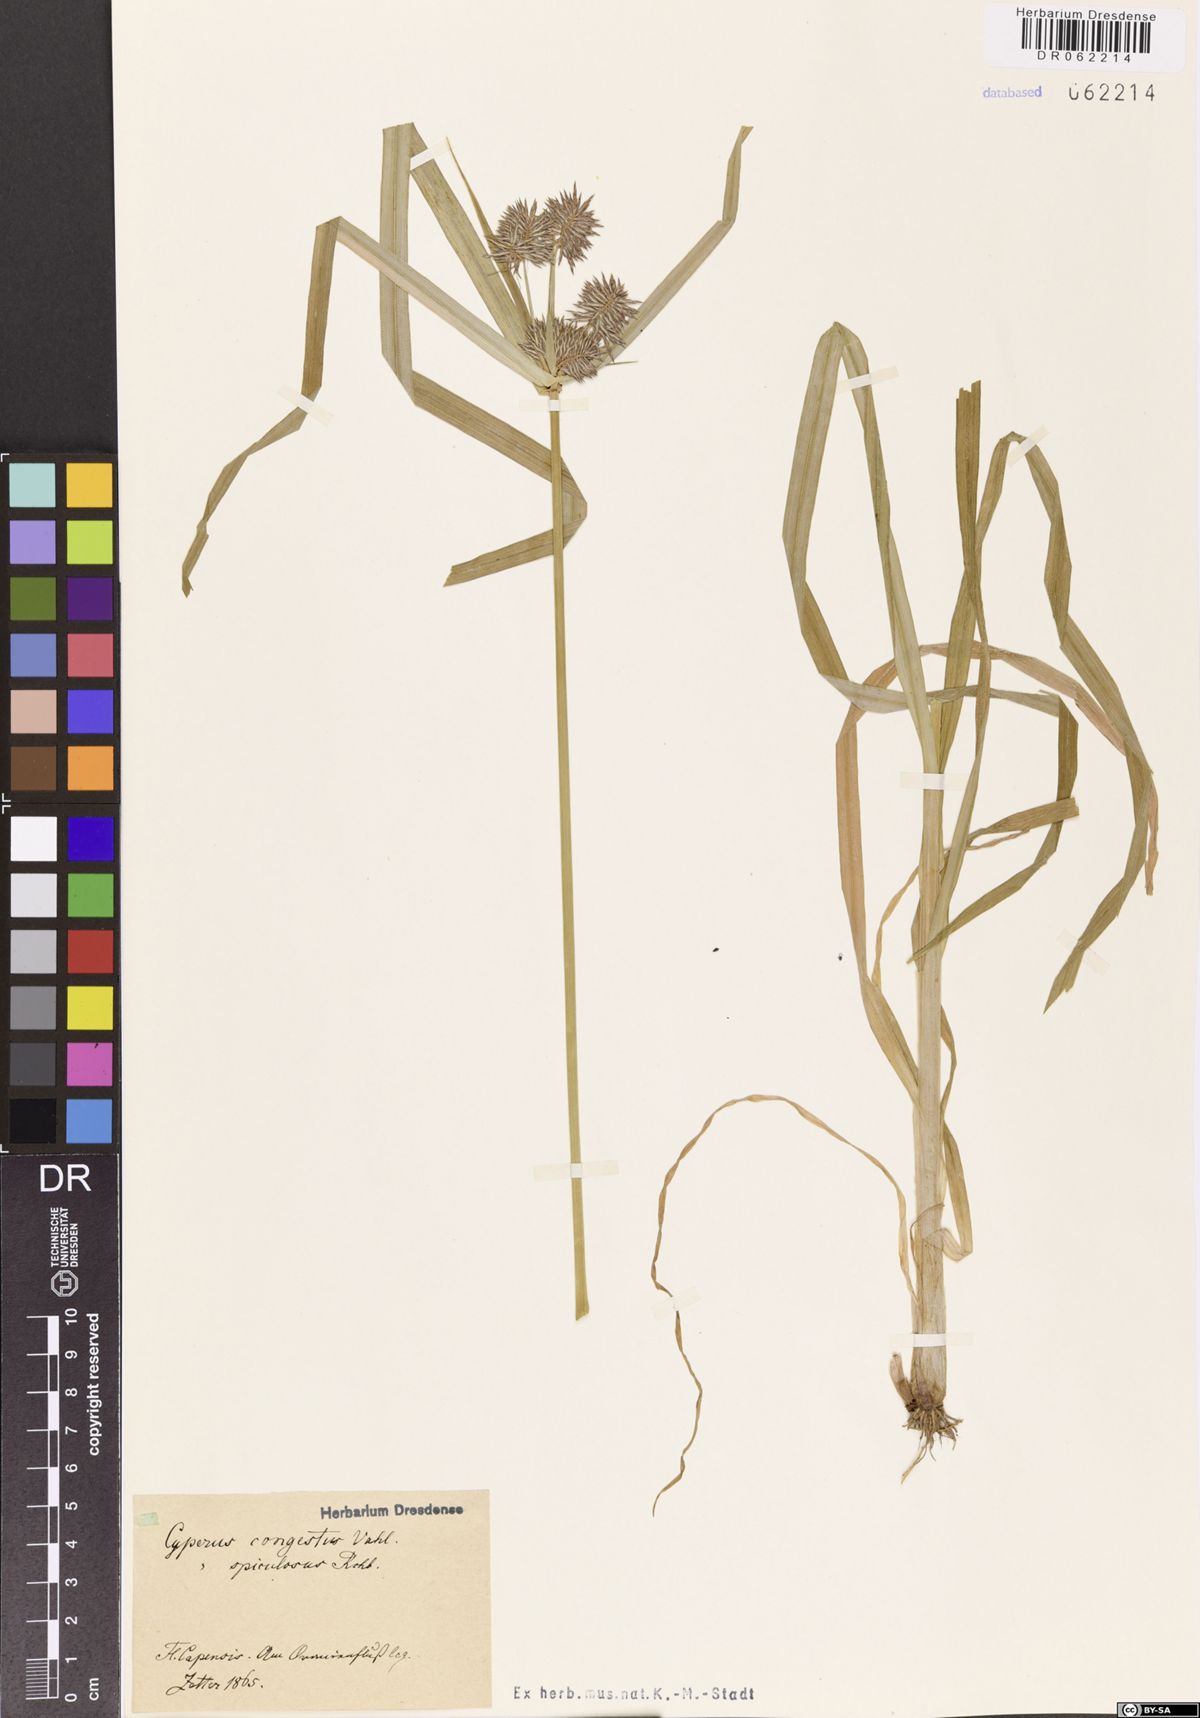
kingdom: Plantae
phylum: Tracheophyta
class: Liliopsida
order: Poales
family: Cyperaceae
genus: Cyperus
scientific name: Cyperus congestus
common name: Dense flat sedge
